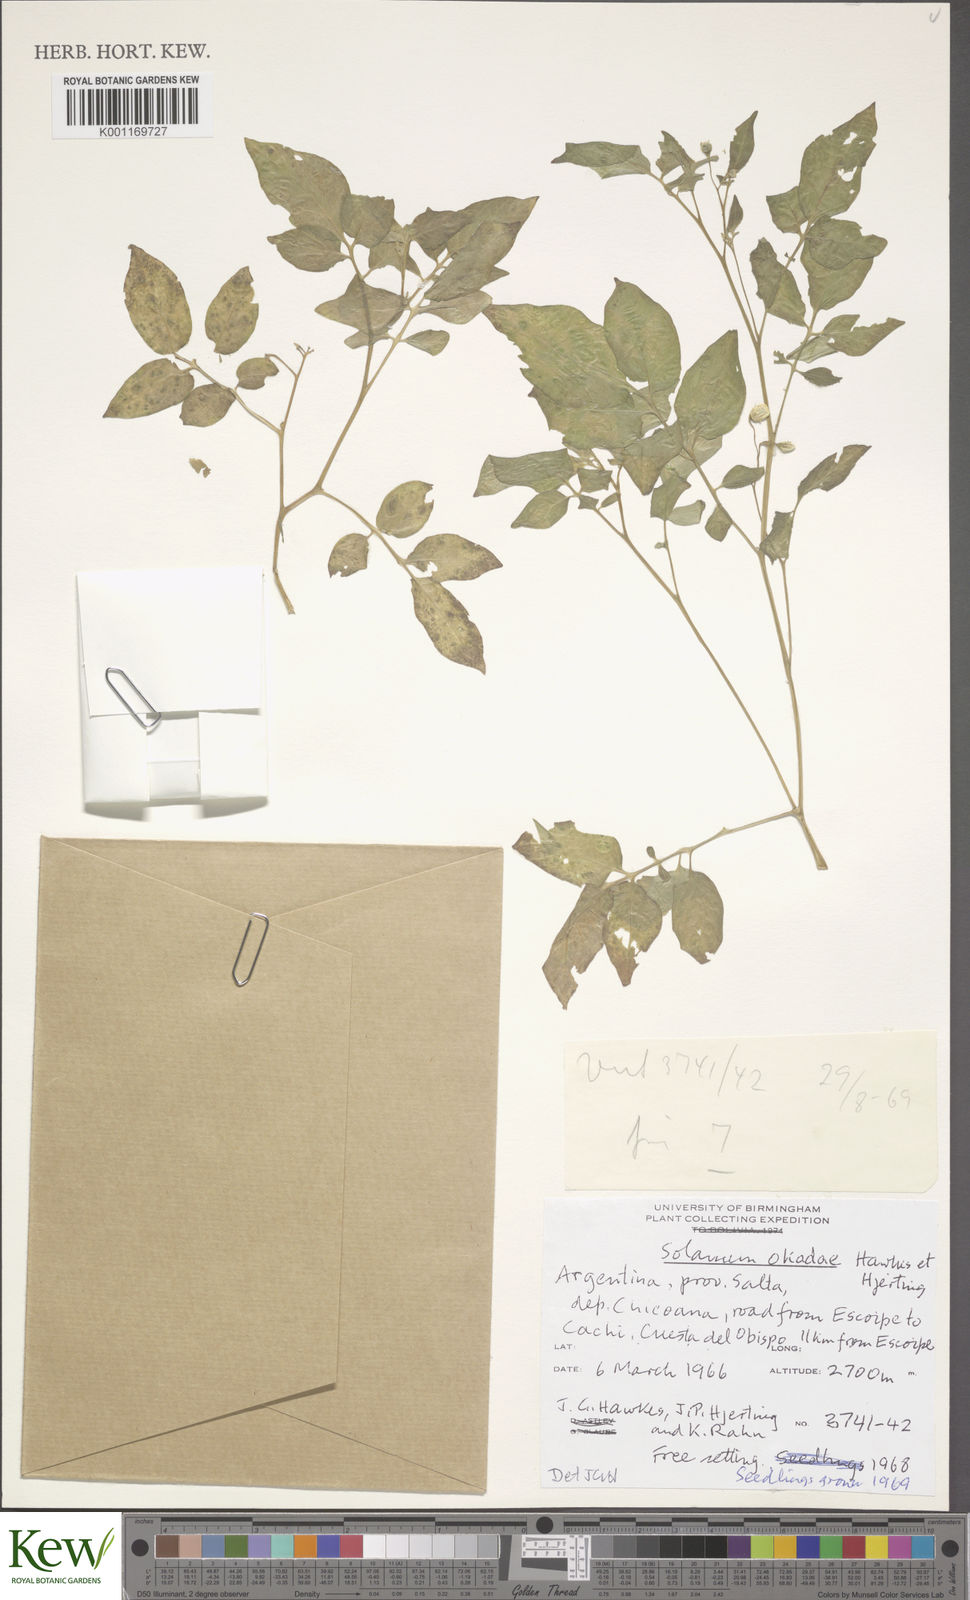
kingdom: Plantae
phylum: Tracheophyta
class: Magnoliopsida
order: Solanales
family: Solanaceae
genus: Solanum
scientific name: Solanum okadae
